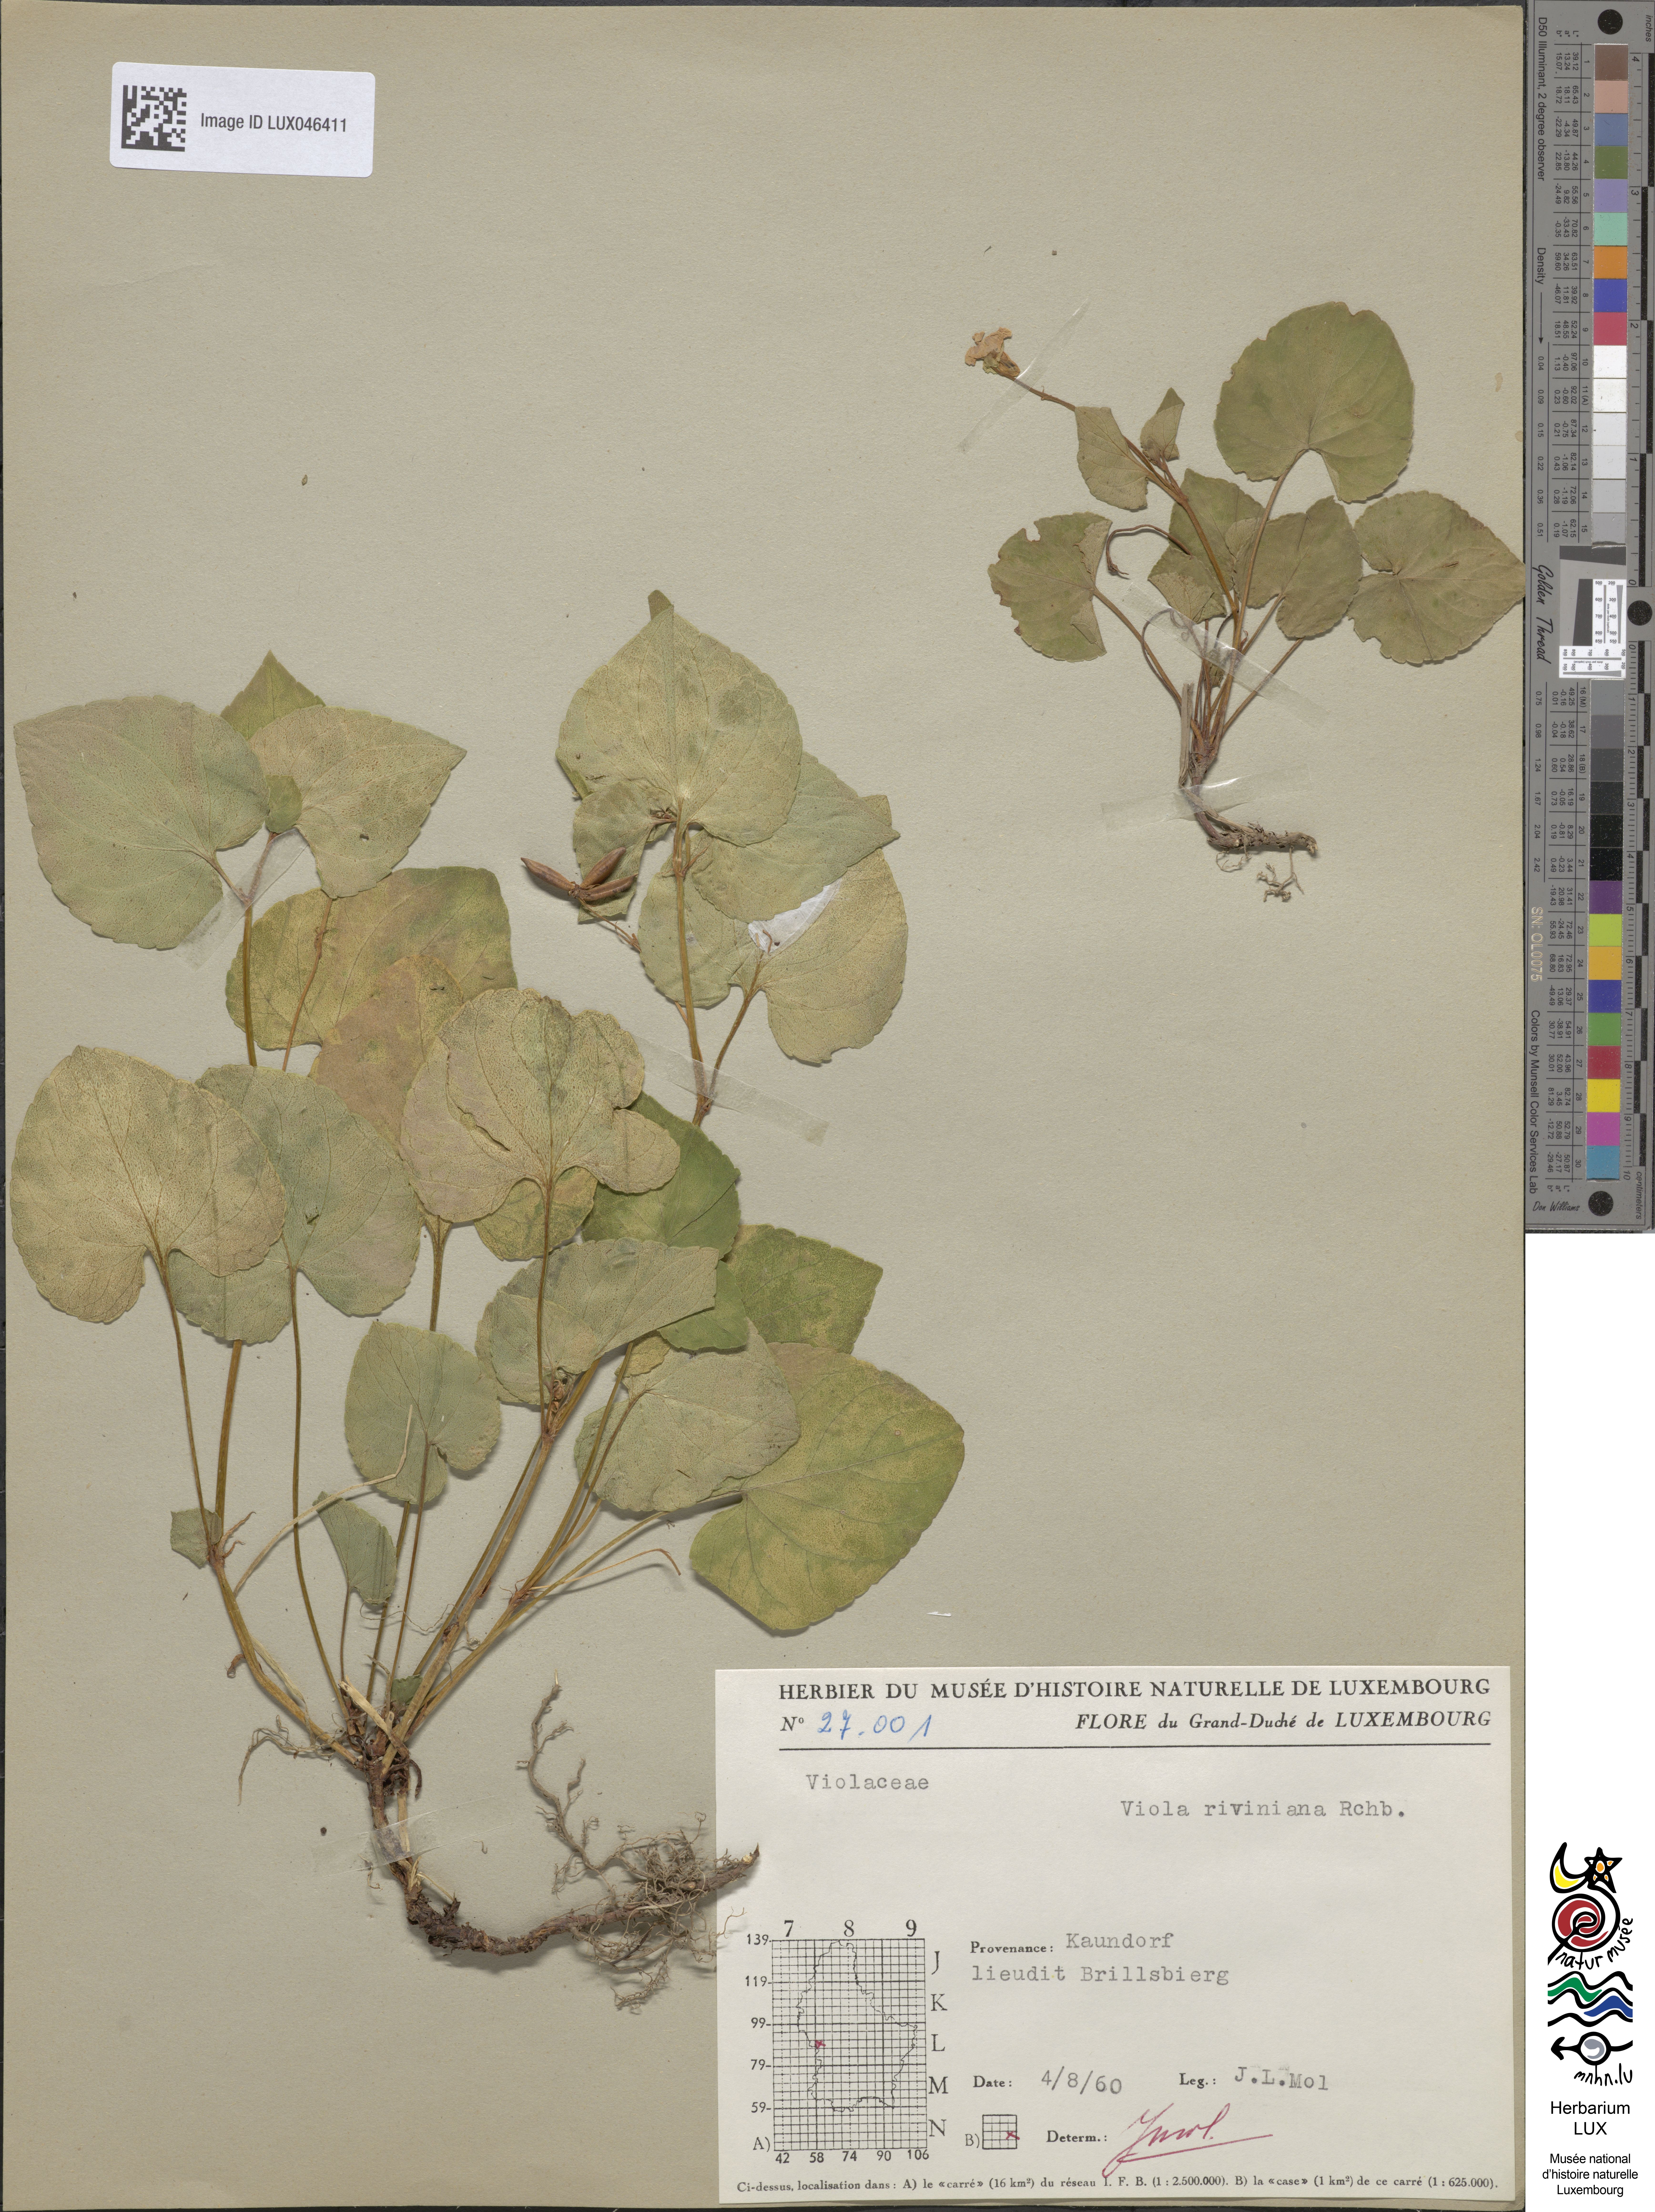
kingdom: Plantae
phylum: Tracheophyta
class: Magnoliopsida
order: Malpighiales
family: Violaceae
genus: Viola
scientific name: Viola riviniana
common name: Common dog-violet
